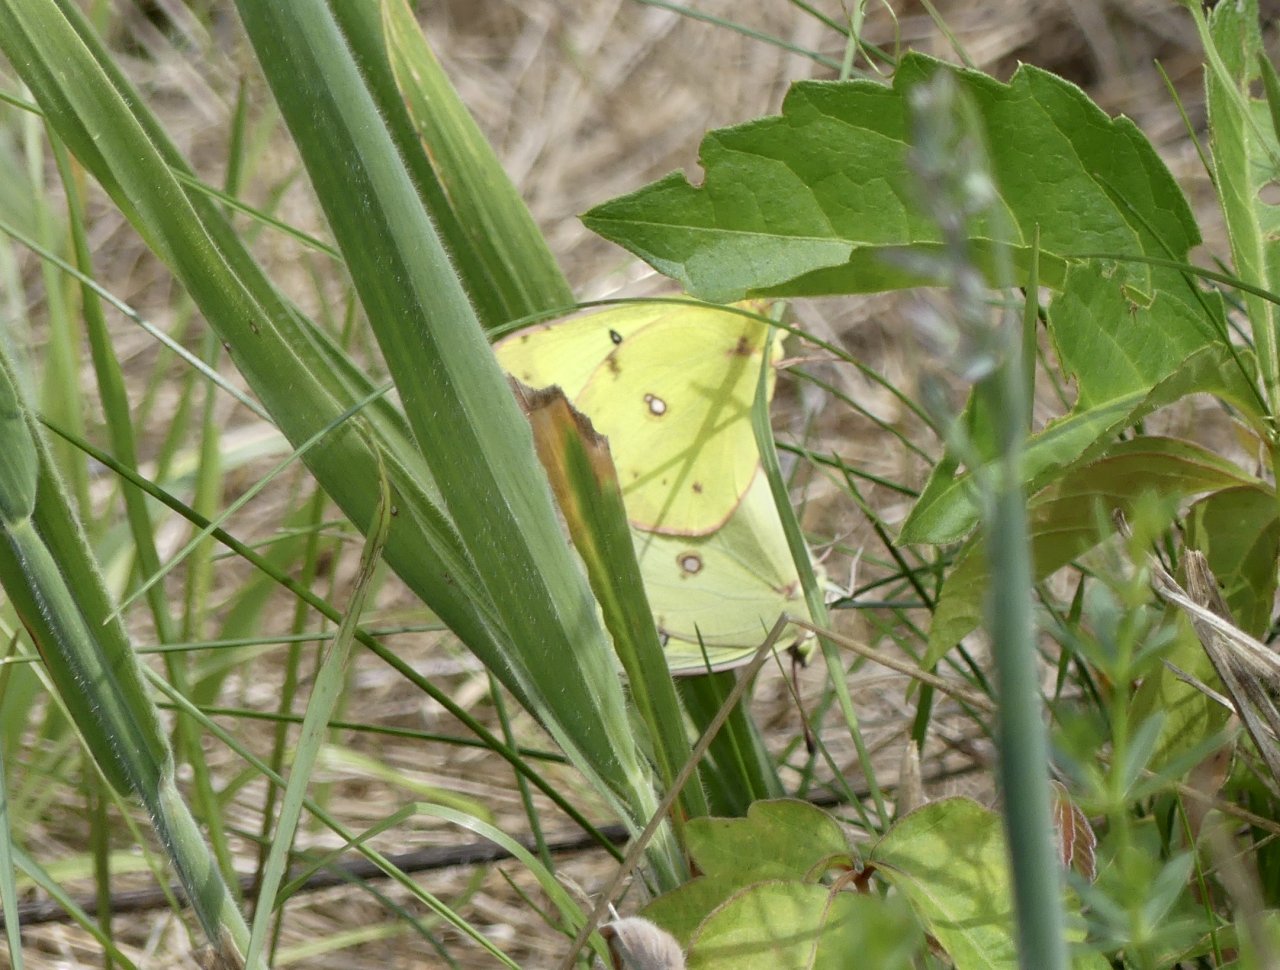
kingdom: Animalia
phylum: Arthropoda
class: Insecta
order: Lepidoptera
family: Pieridae
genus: Colias
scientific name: Colias philodice
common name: Clouded Sulphur
